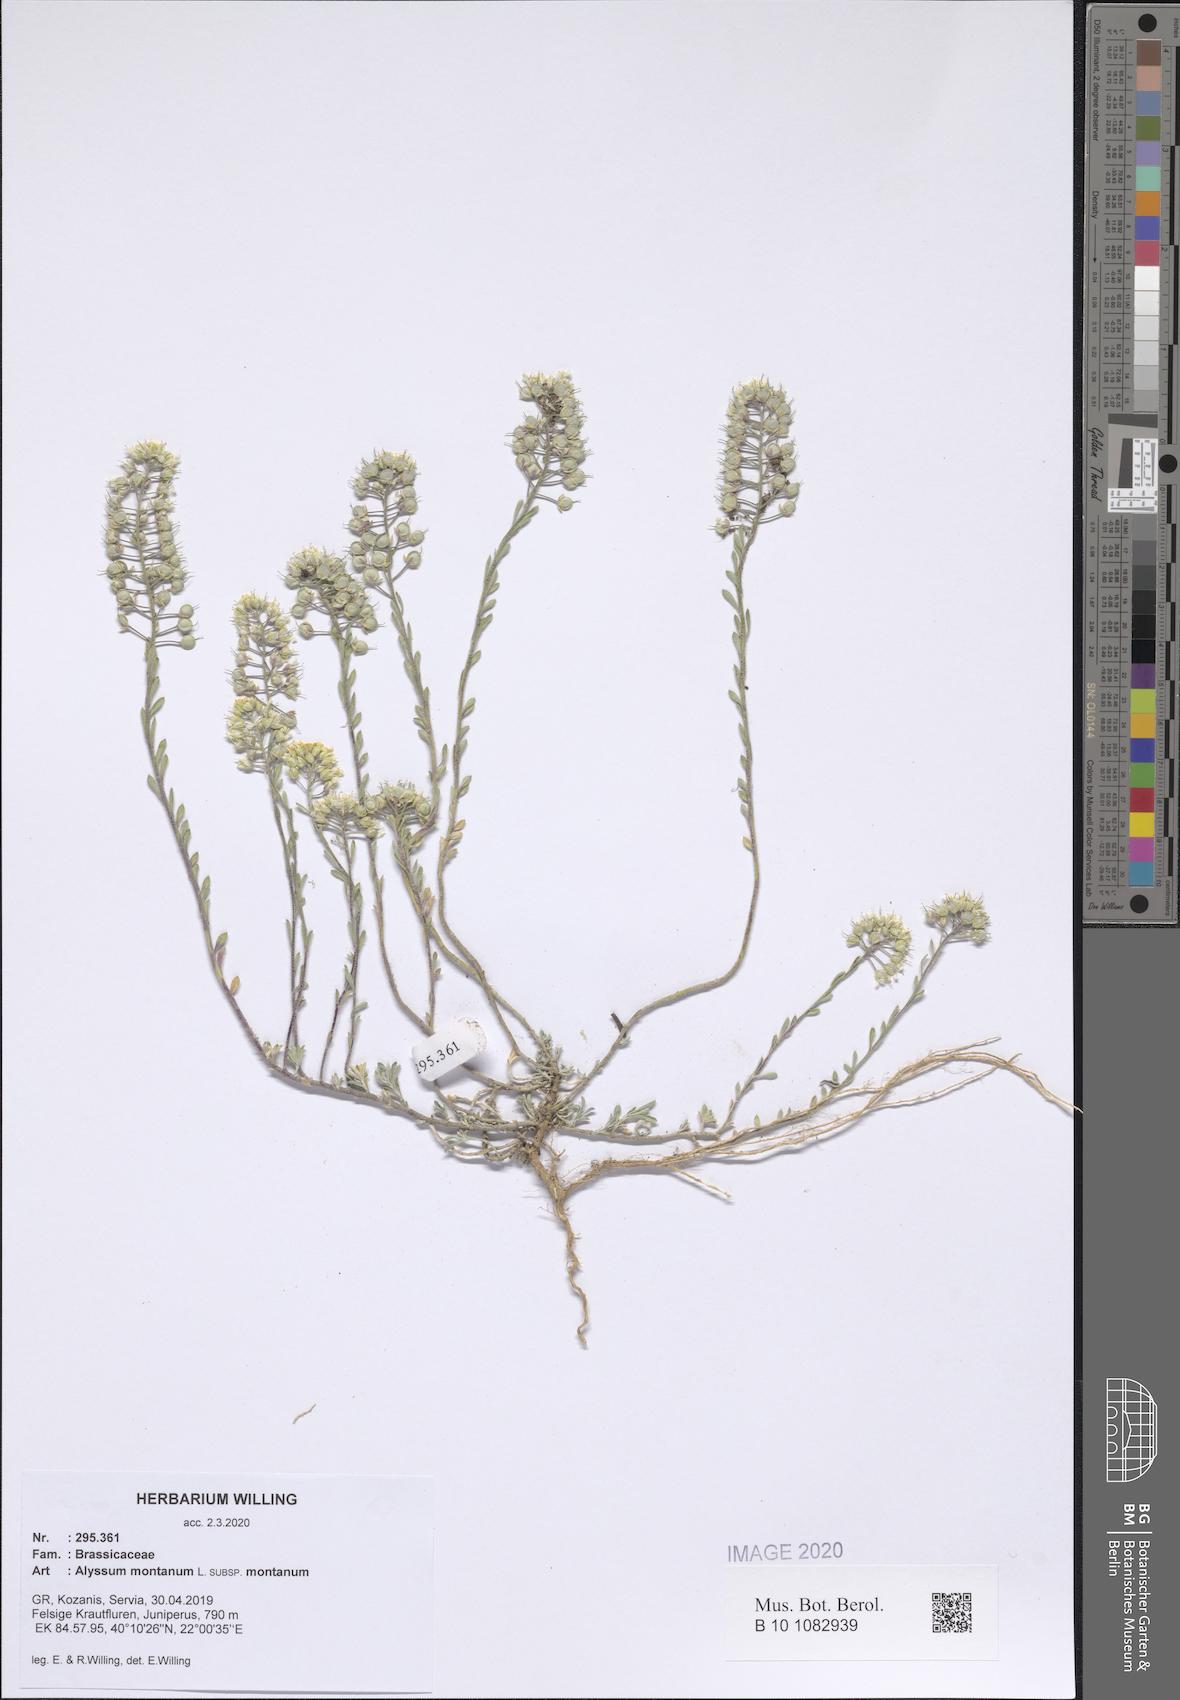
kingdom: Plantae
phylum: Tracheophyta
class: Magnoliopsida
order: Brassicales
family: Brassicaceae
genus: Alyssum
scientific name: Alyssum montanum
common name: Mountain alison
